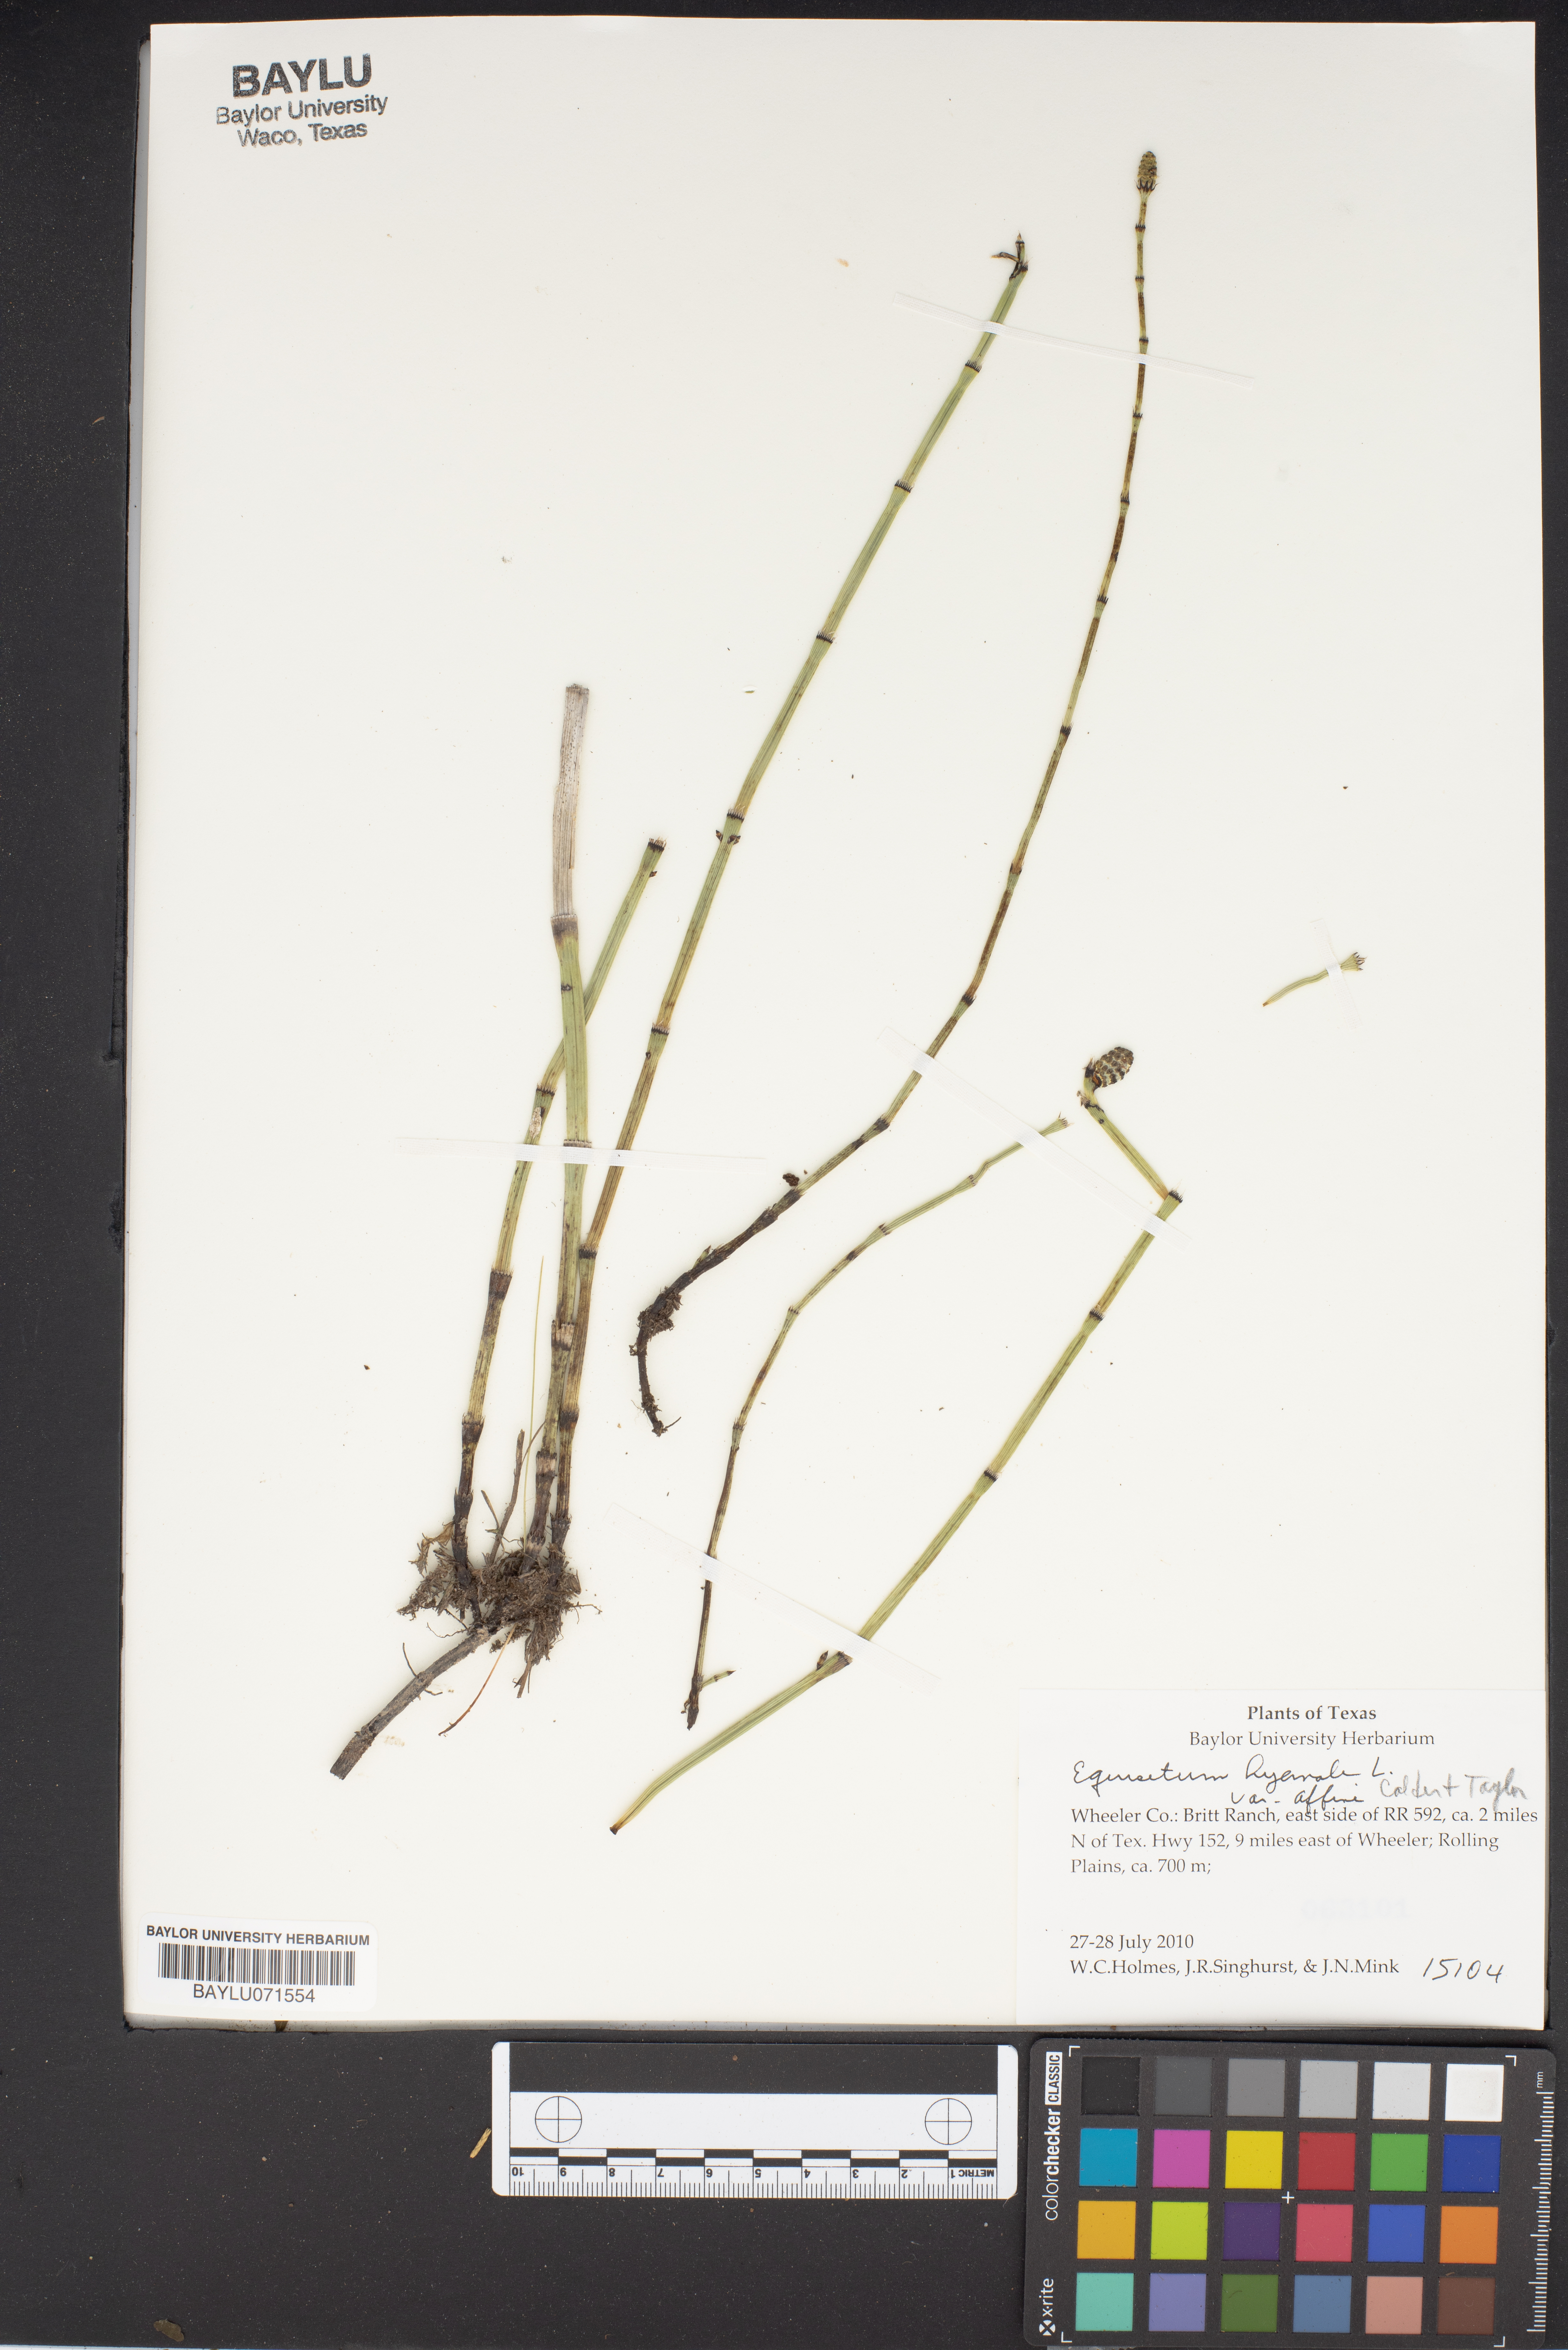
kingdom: Plantae
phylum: Tracheophyta
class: Polypodiopsida
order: Equisetales
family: Equisetaceae
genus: Equisetum
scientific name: Equisetum praealtum
